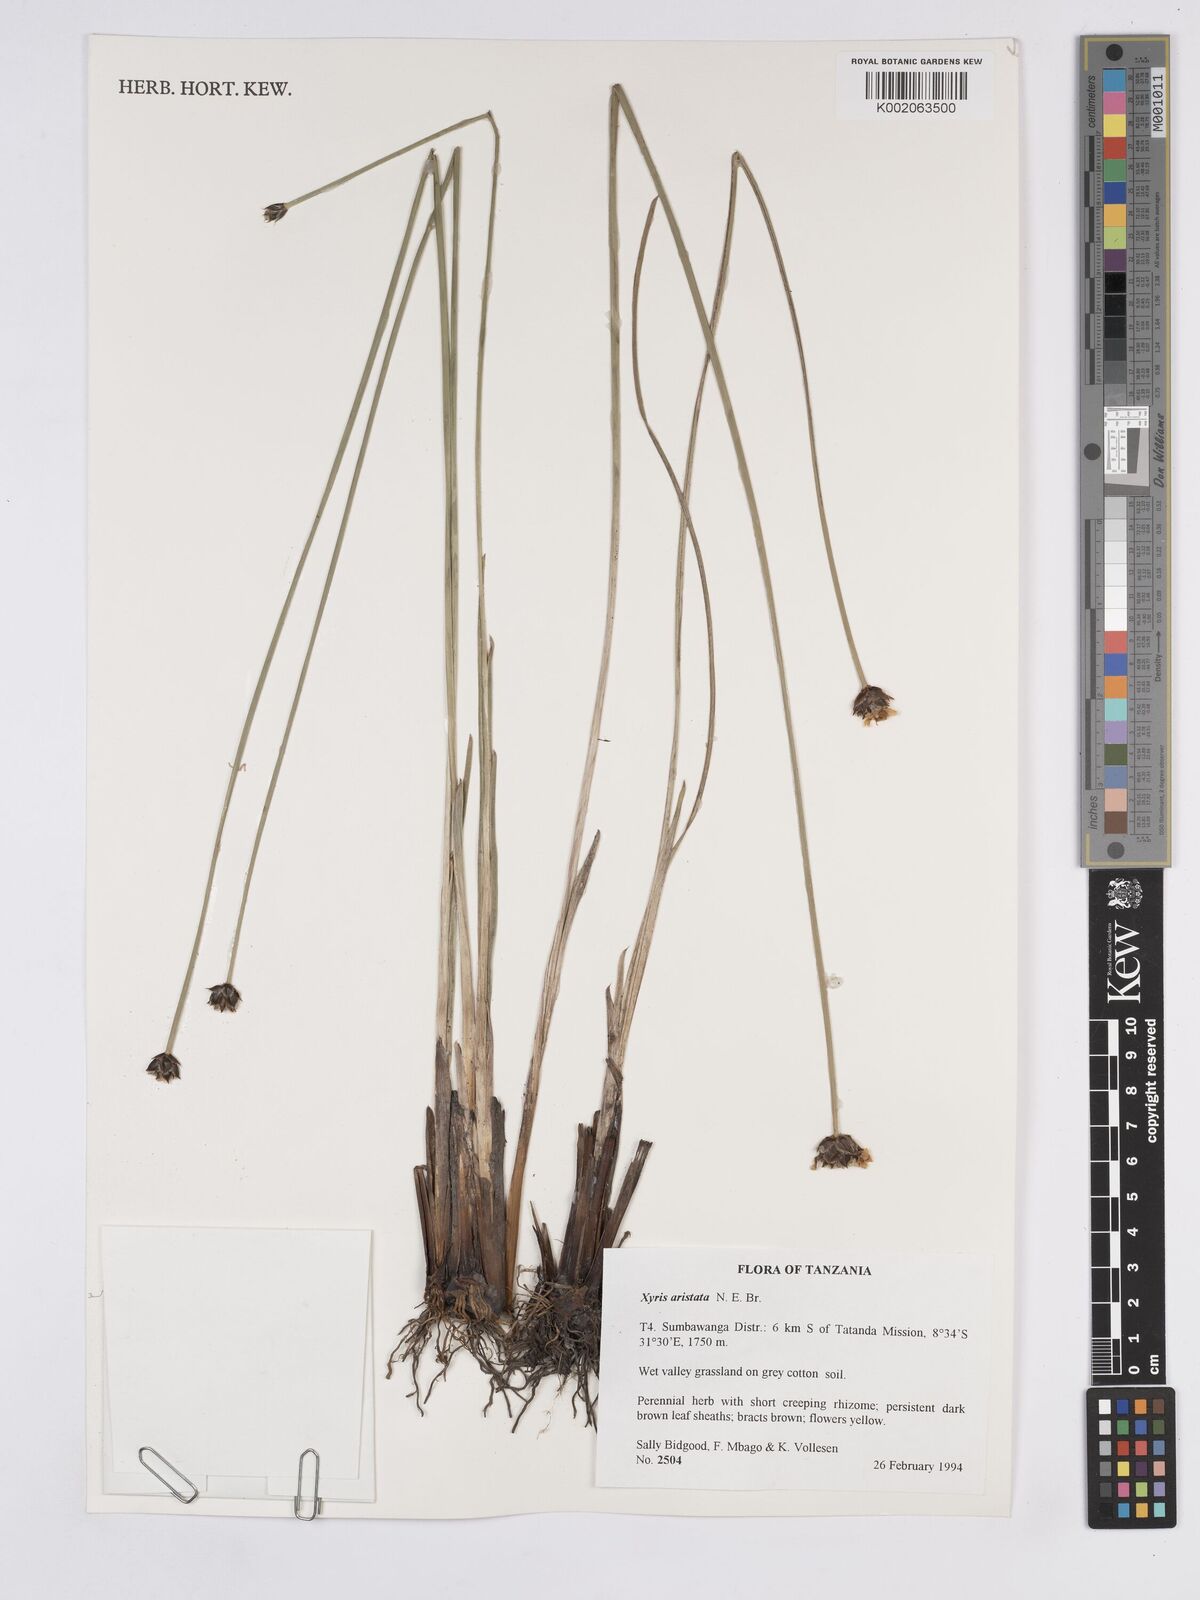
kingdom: Plantae
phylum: Tracheophyta
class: Liliopsida
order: Poales
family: Xyridaceae
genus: Xyris
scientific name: Xyris aristata
